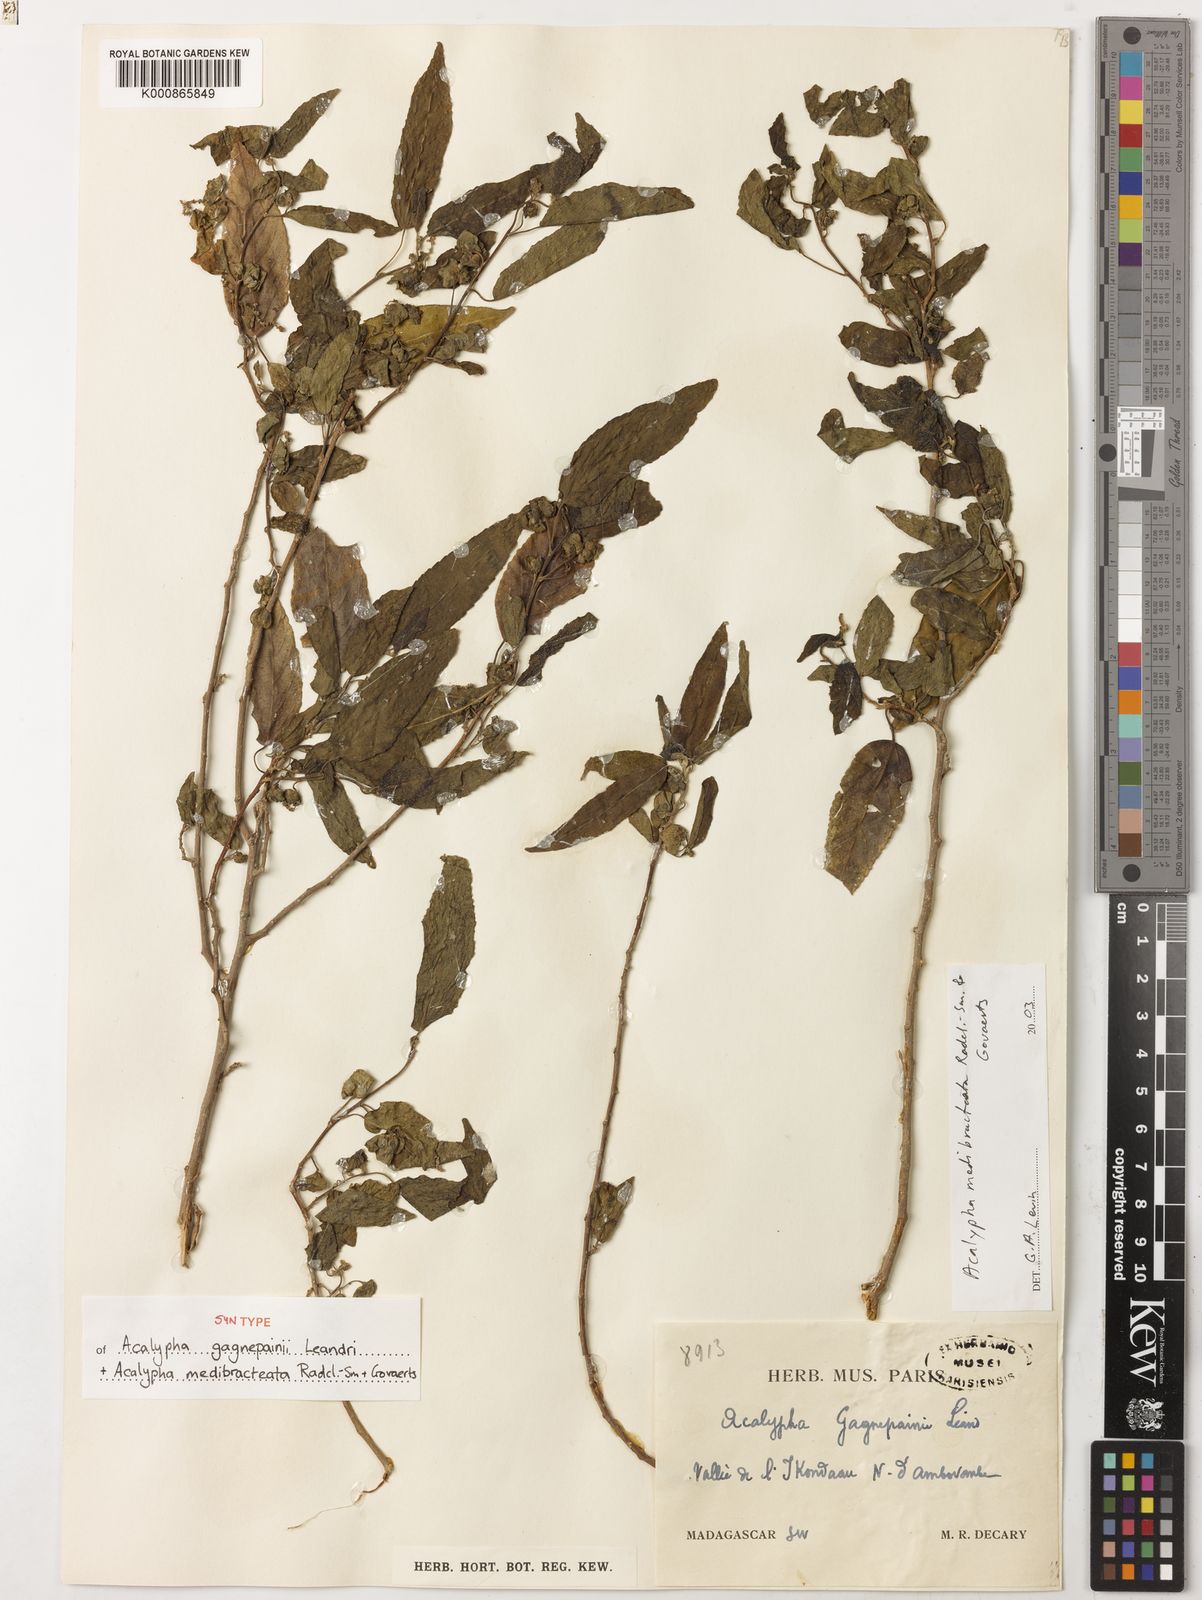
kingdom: Plantae
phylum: Tracheophyta
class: Magnoliopsida
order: Malpighiales
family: Euphorbiaceae
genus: Acalypha
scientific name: Acalypha medibracteata
